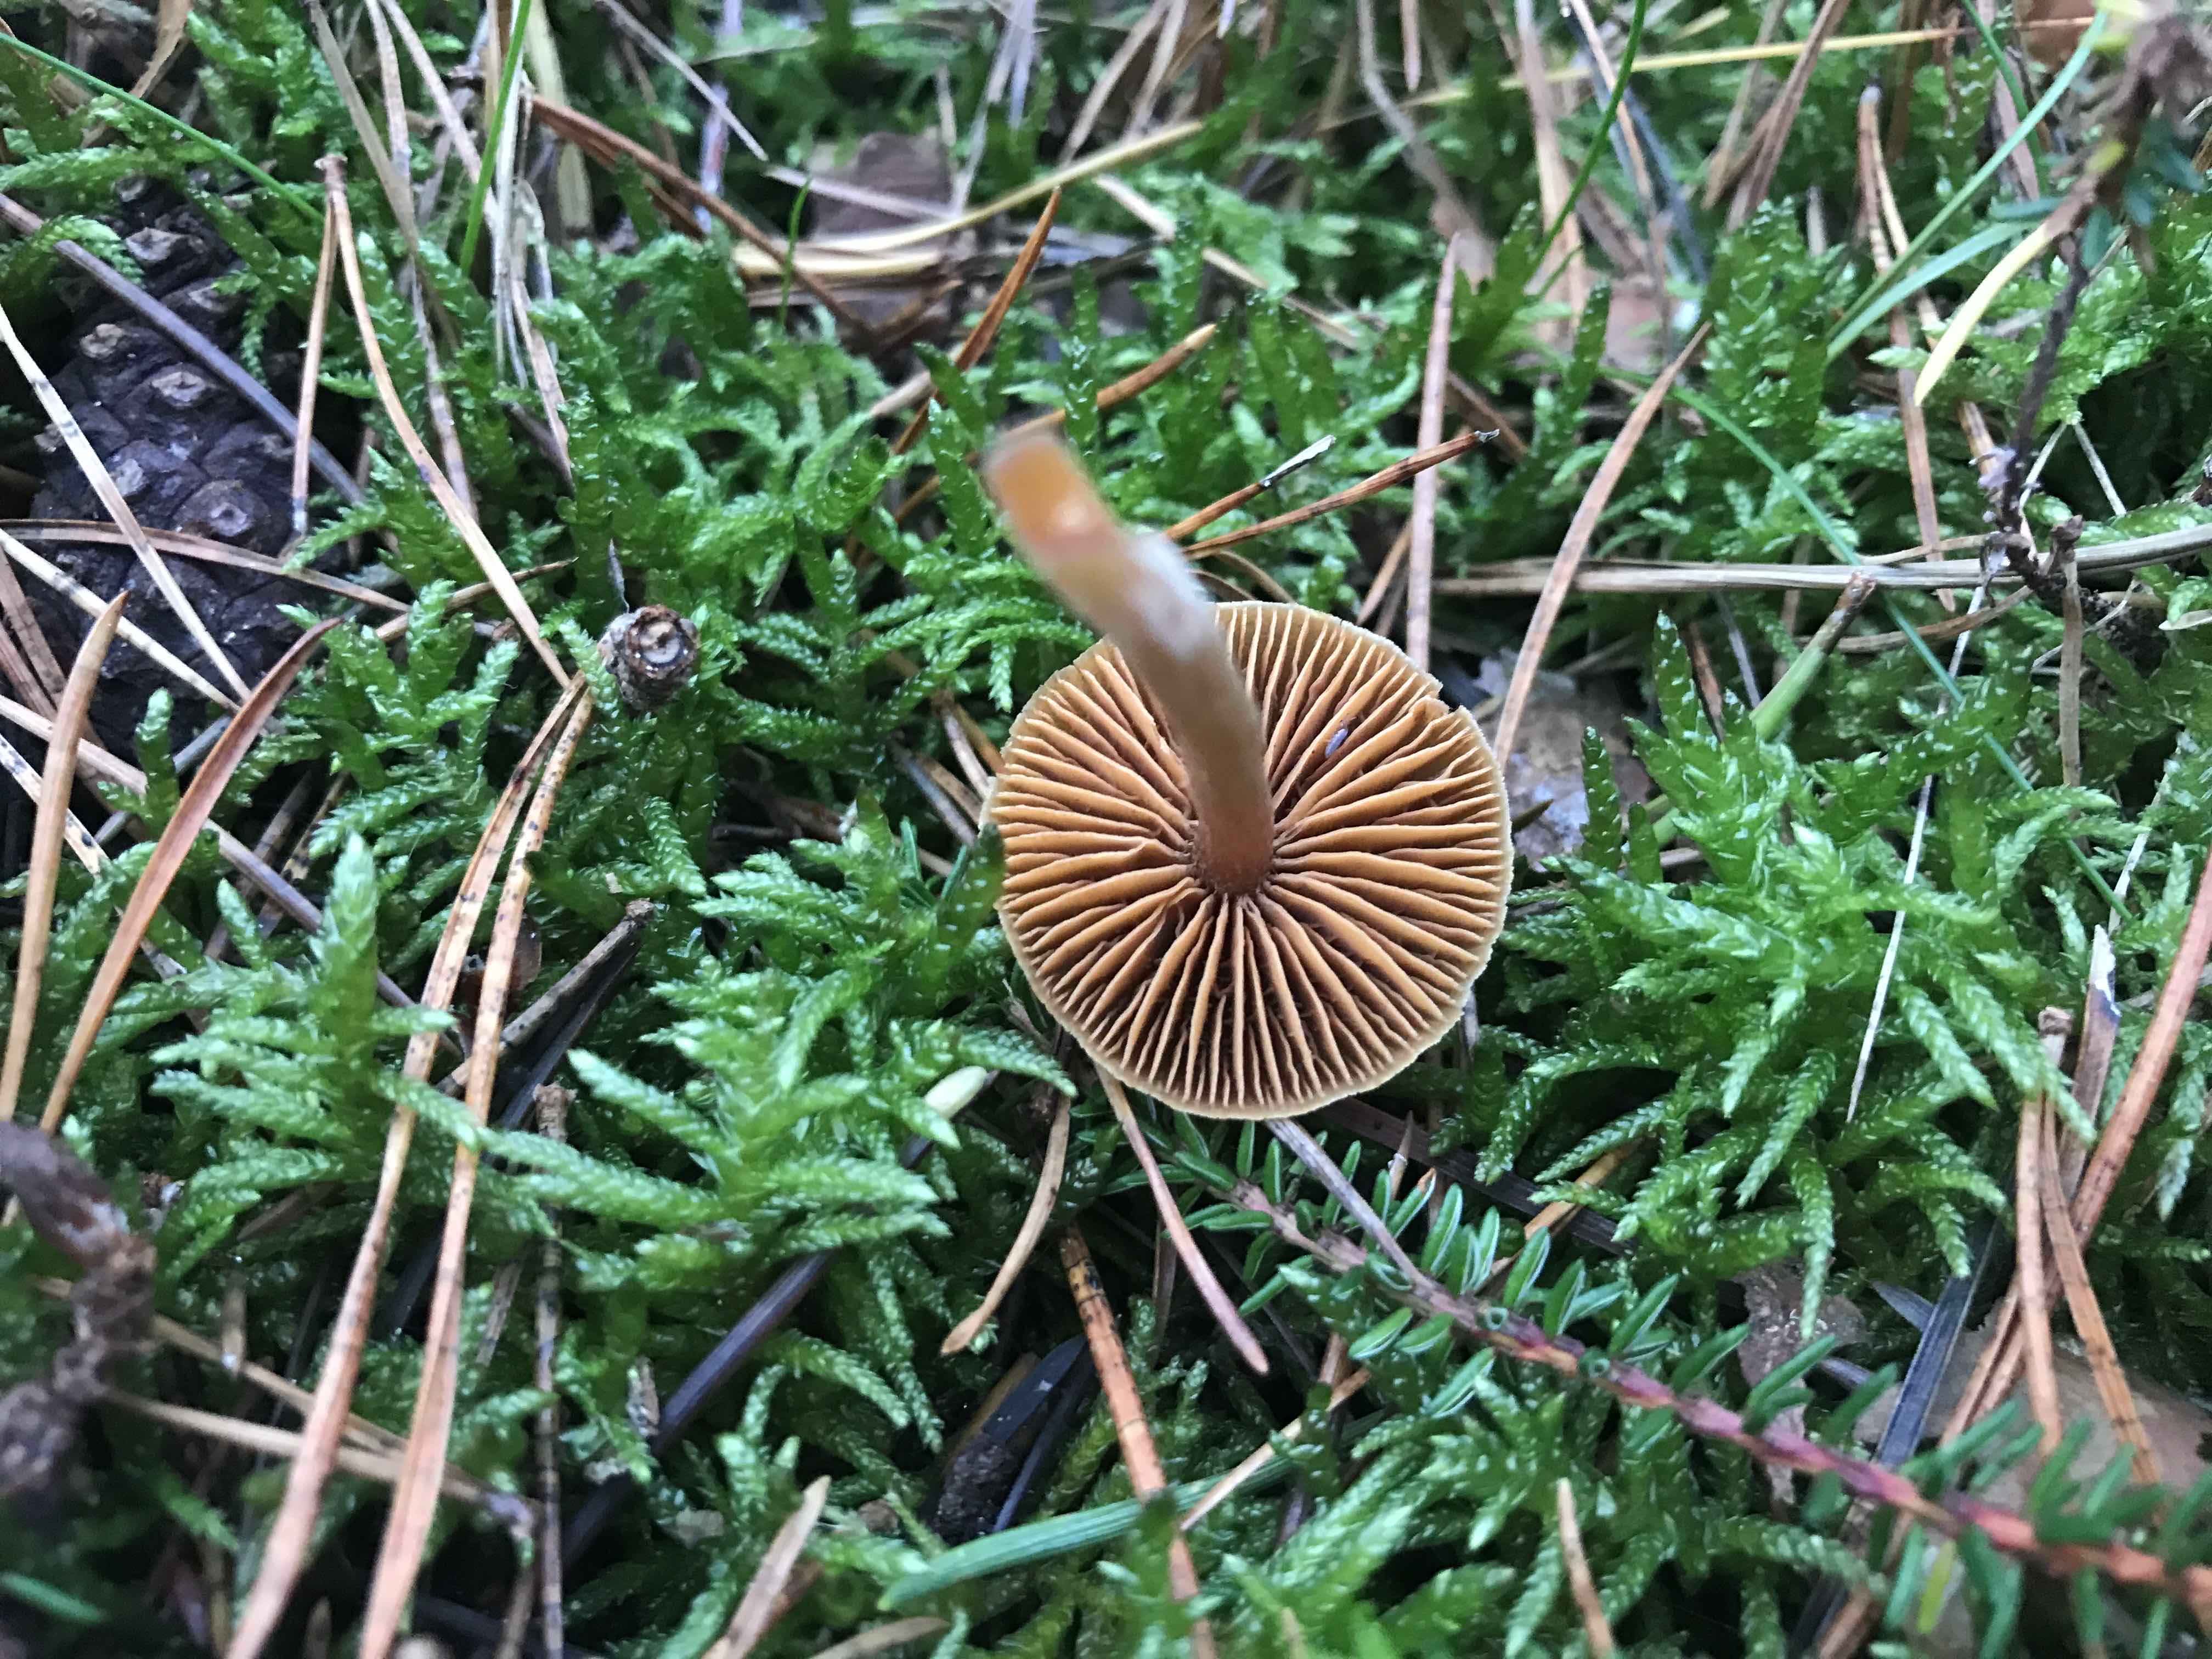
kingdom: Fungi
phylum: Basidiomycota
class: Agaricomycetes
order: Agaricales
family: Cortinariaceae
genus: Cortinarius
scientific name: Cortinarius
